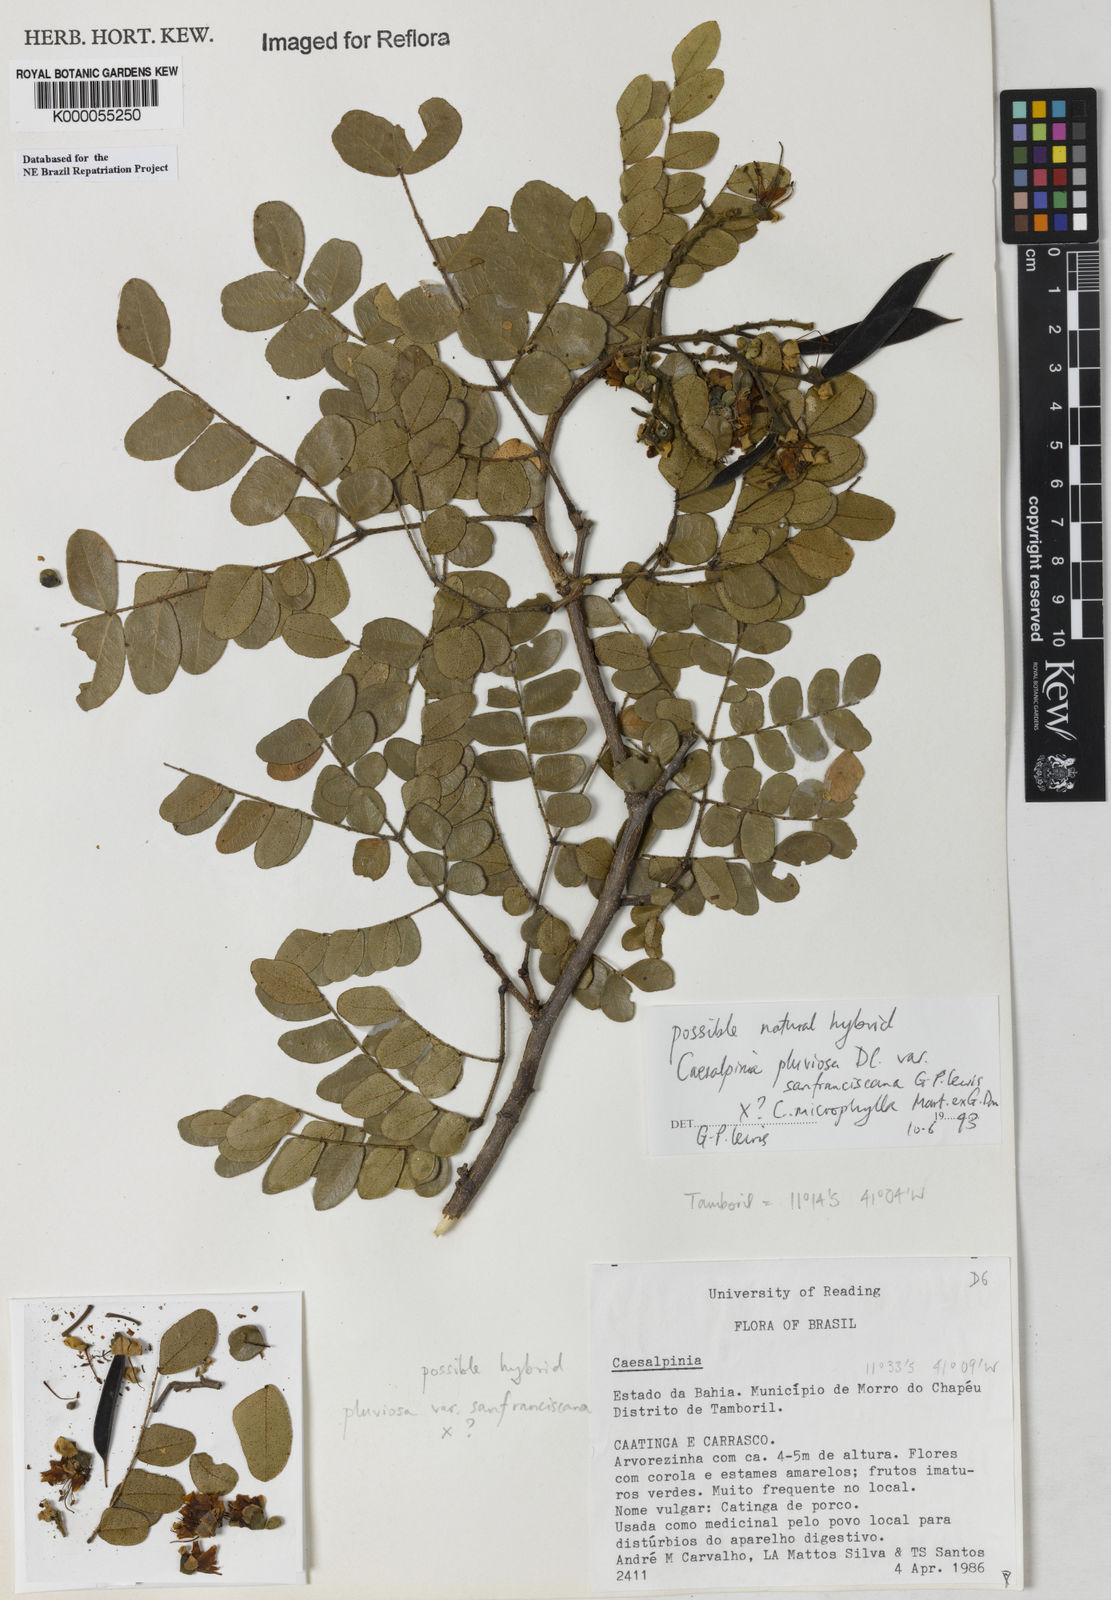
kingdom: Plantae
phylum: Tracheophyta
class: Magnoliopsida
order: Fabales
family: Fabaceae
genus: Cenostigma
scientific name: Cenostigma pluviosum
